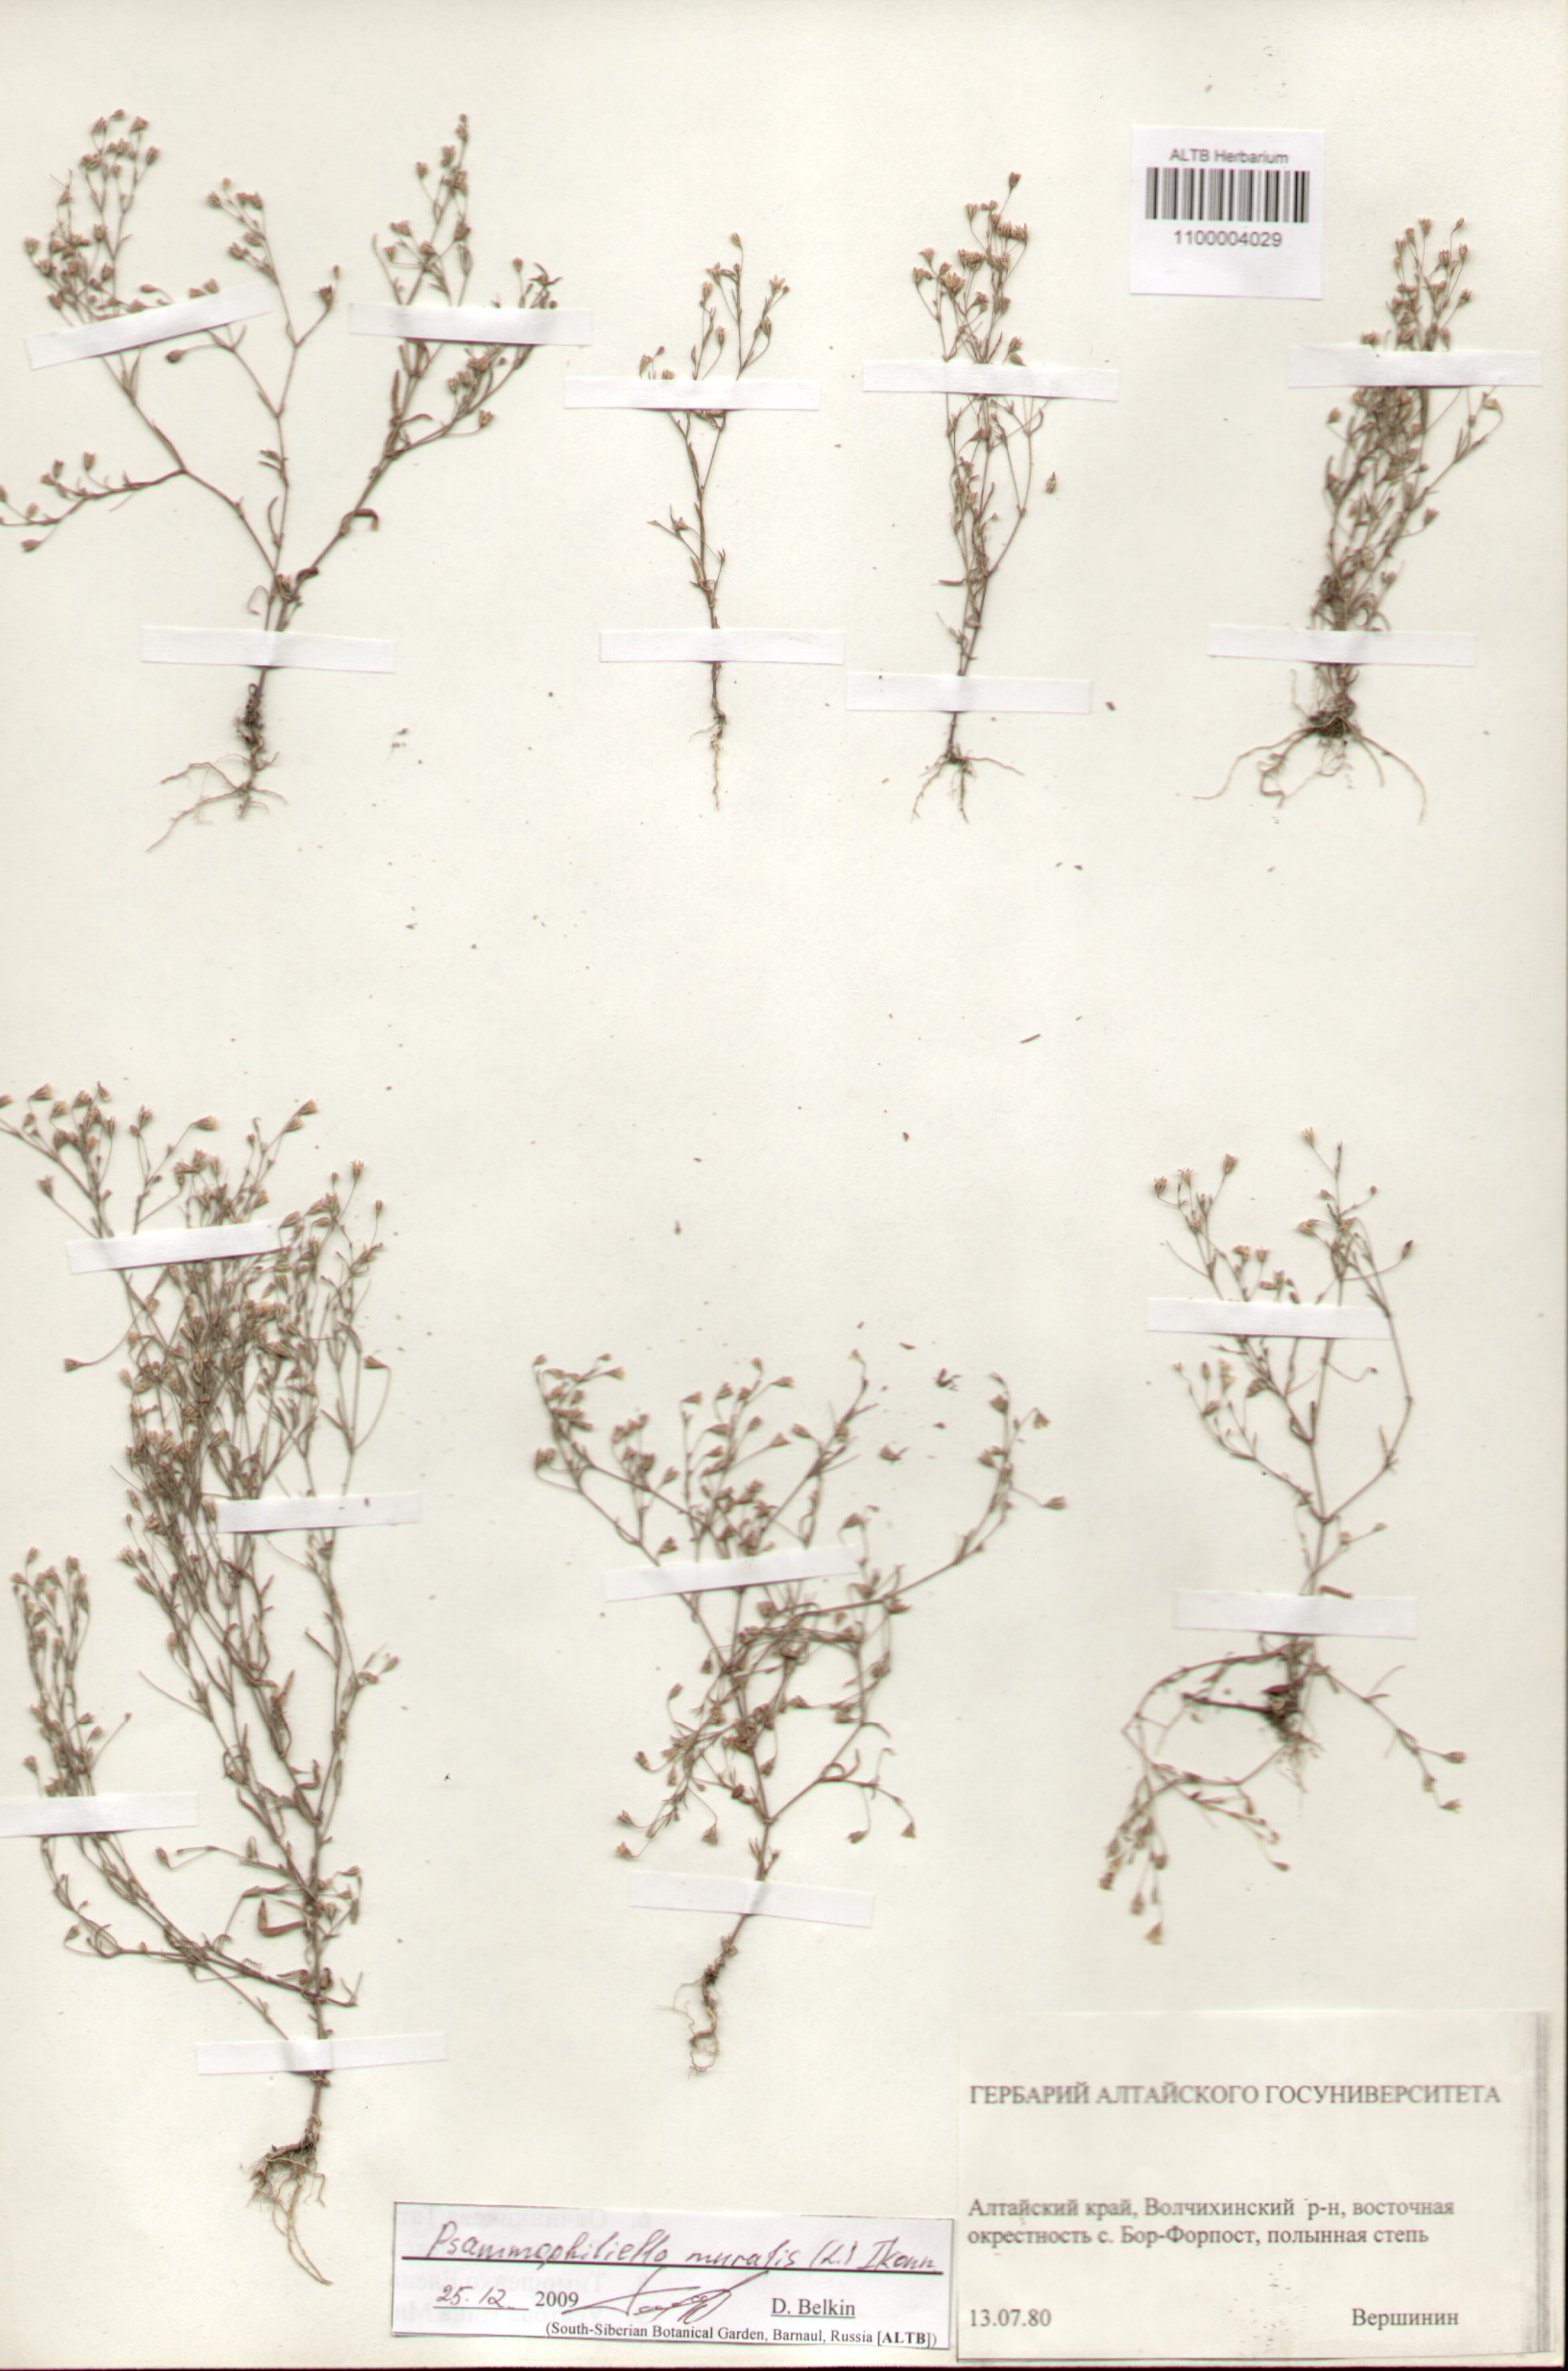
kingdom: Plantae
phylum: Tracheophyta
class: Magnoliopsida
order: Caryophyllales
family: Caryophyllaceae
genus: Psammophiliella
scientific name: Psammophiliella muralis
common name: Cushion baby's-breath
